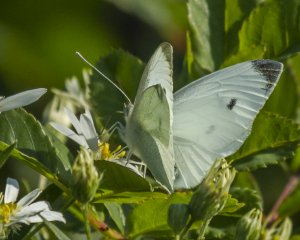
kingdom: Animalia
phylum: Arthropoda
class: Insecta
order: Lepidoptera
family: Pieridae
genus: Pieris
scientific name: Pieris rapae
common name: Cabbage White
